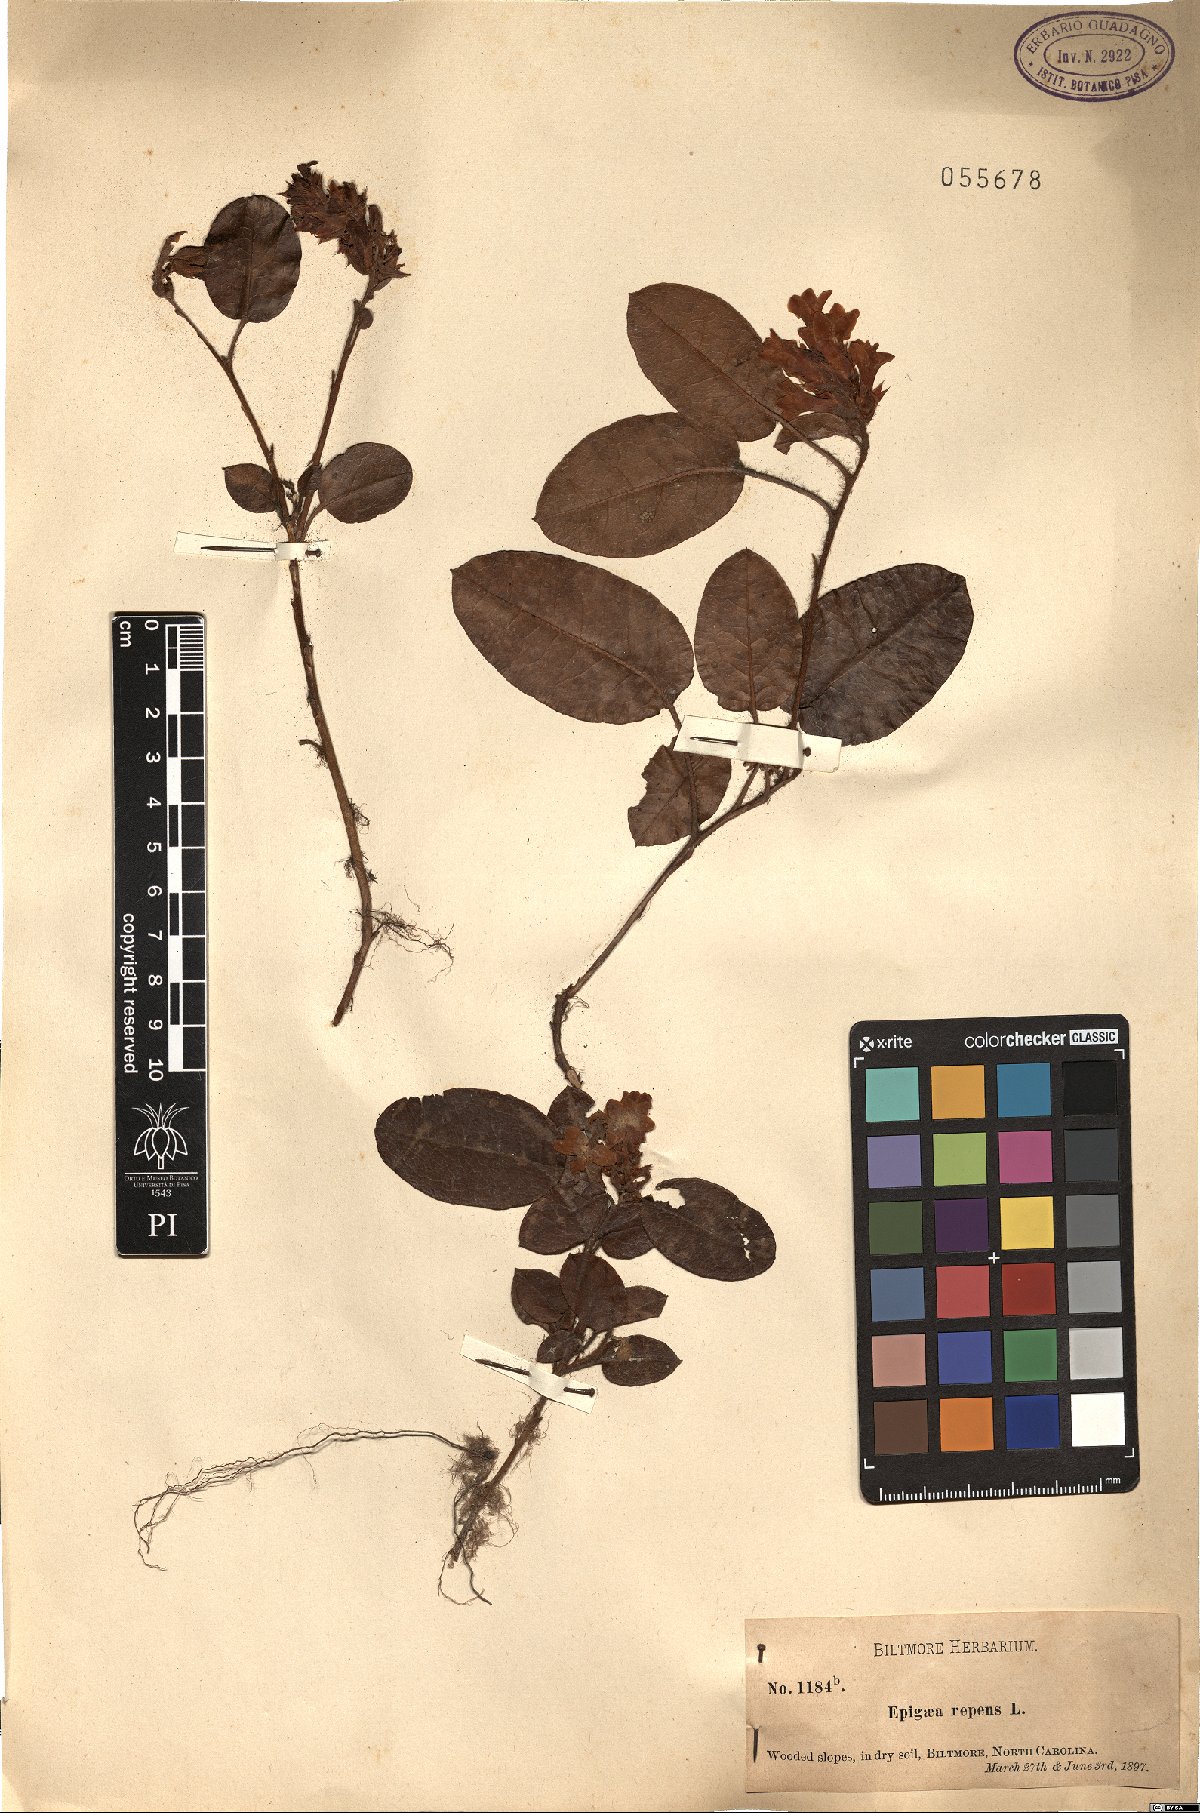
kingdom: Plantae
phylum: Tracheophyta
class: Magnoliopsida
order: Ericales
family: Ericaceae
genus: Epigaea
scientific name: Epigaea repens
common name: Gravelroot
